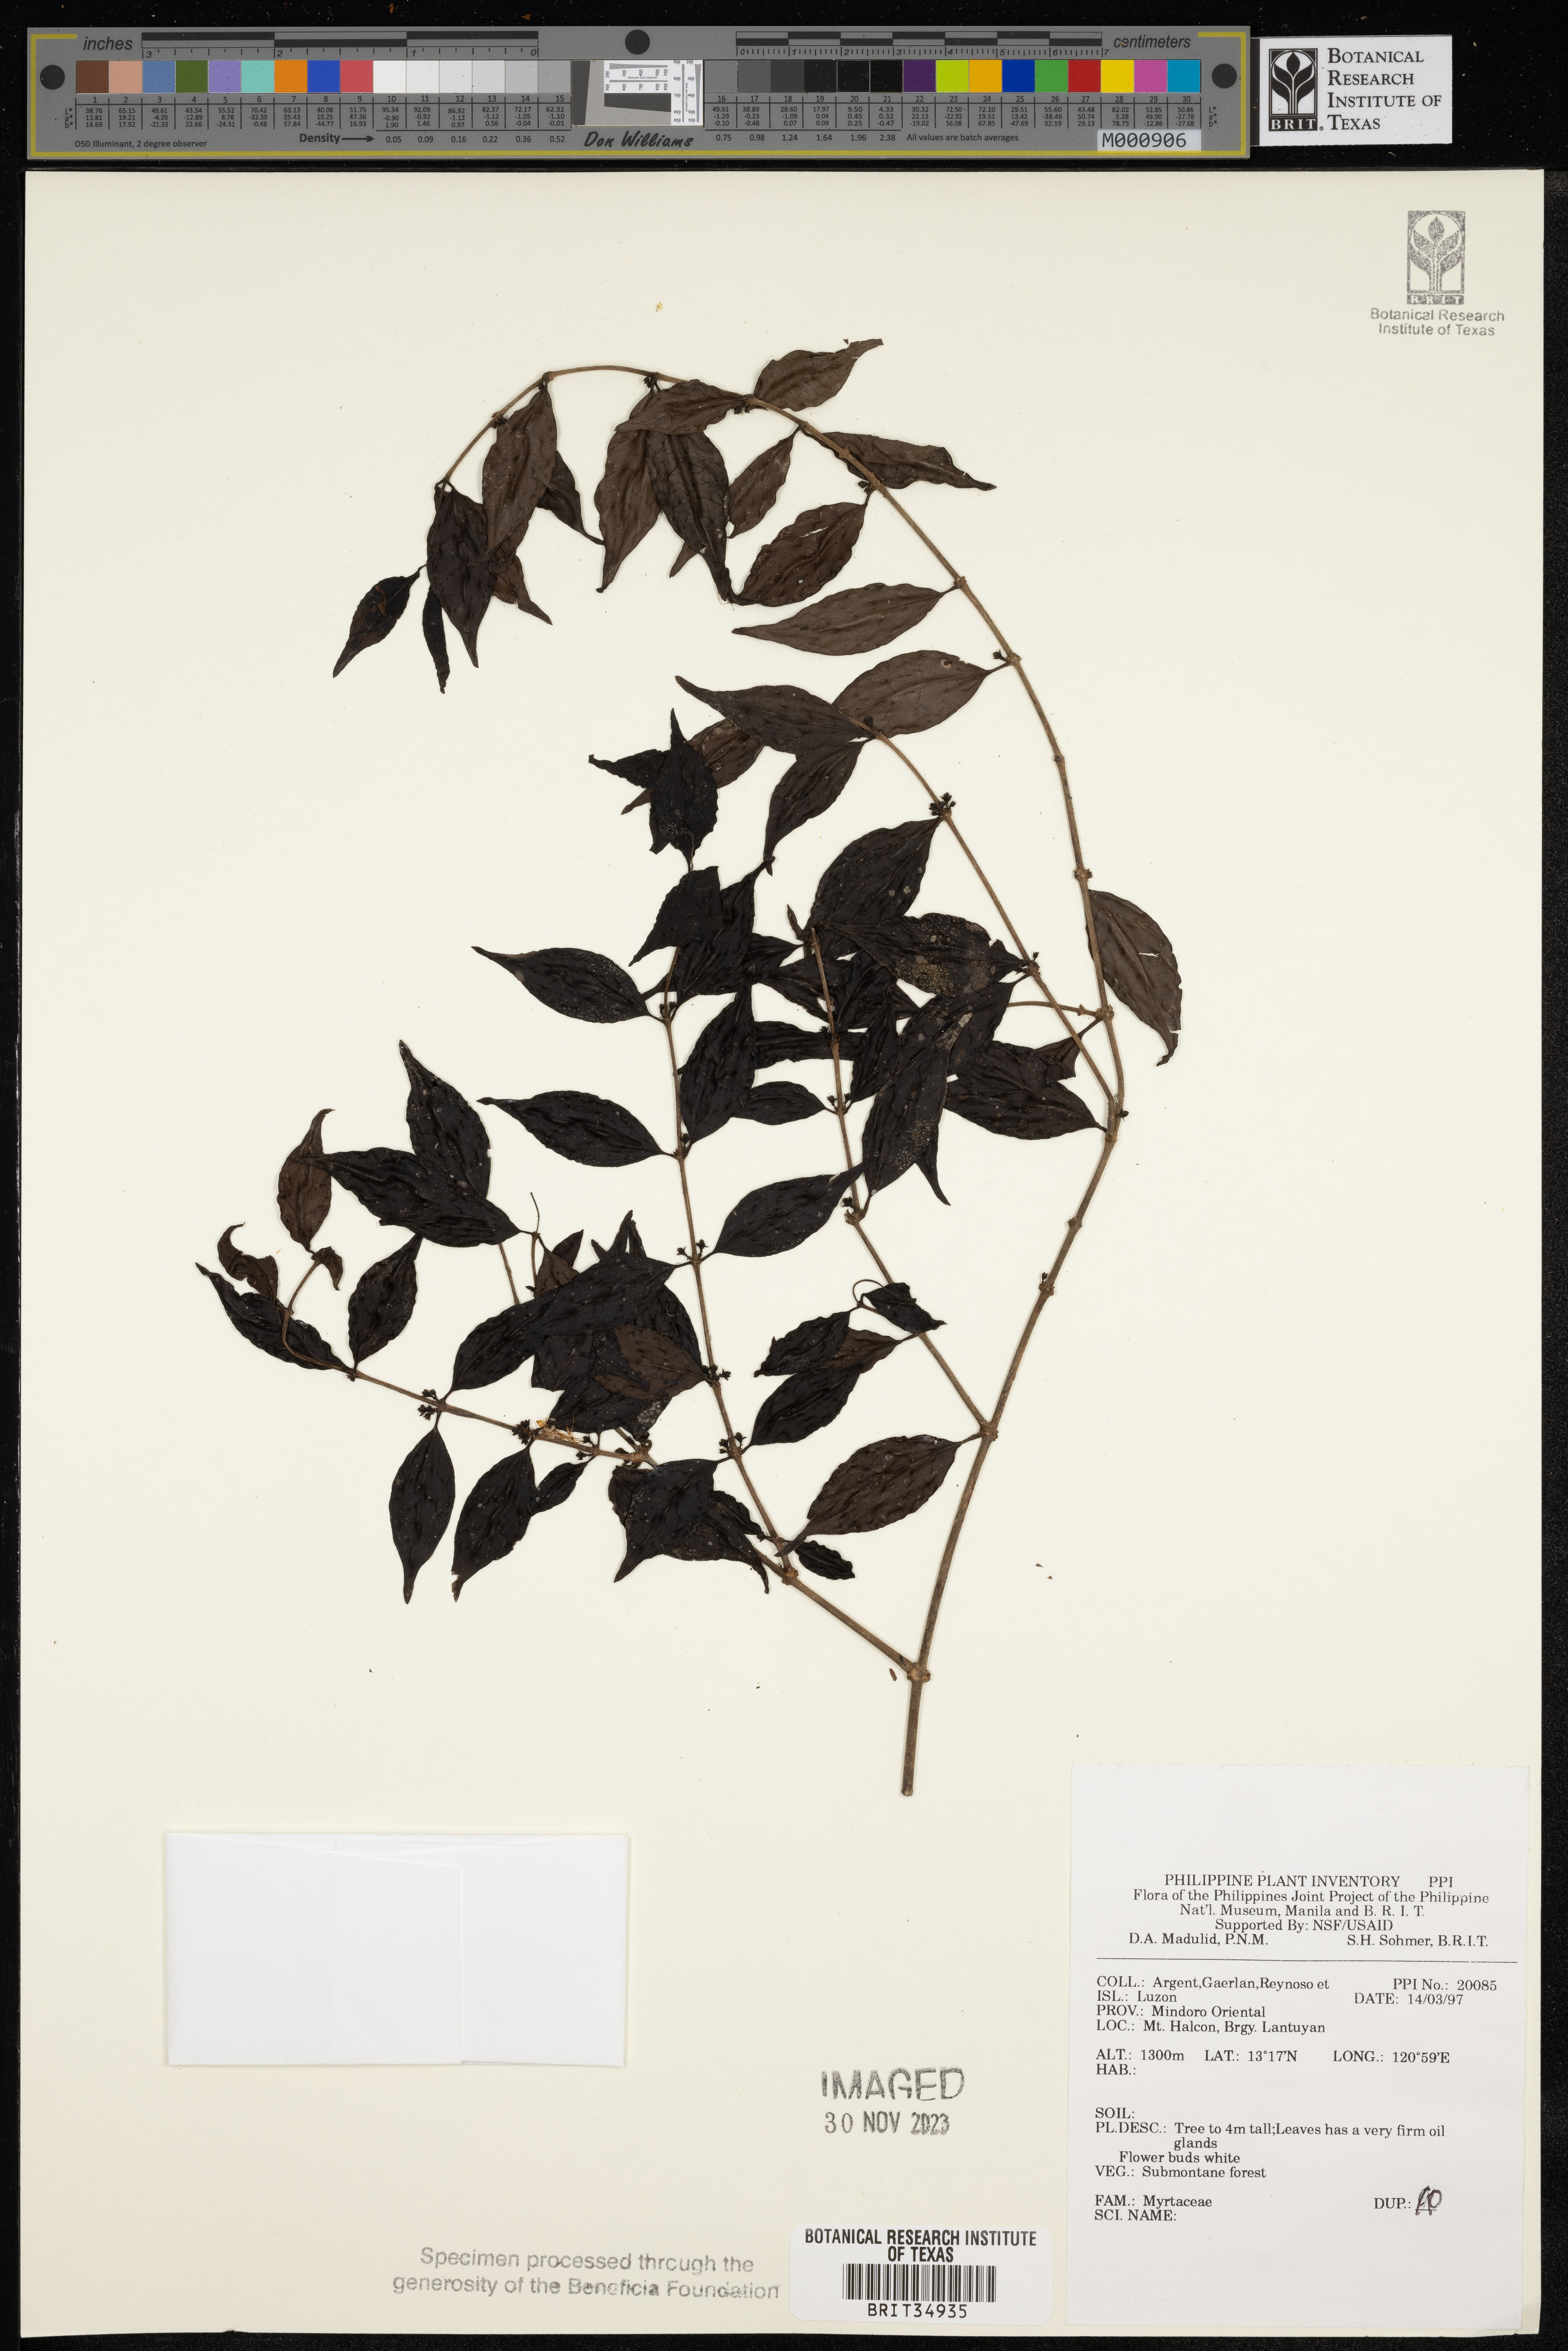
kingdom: Plantae
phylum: Tracheophyta
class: Magnoliopsida
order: Myrtales
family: Myrtaceae
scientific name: Myrtaceae
